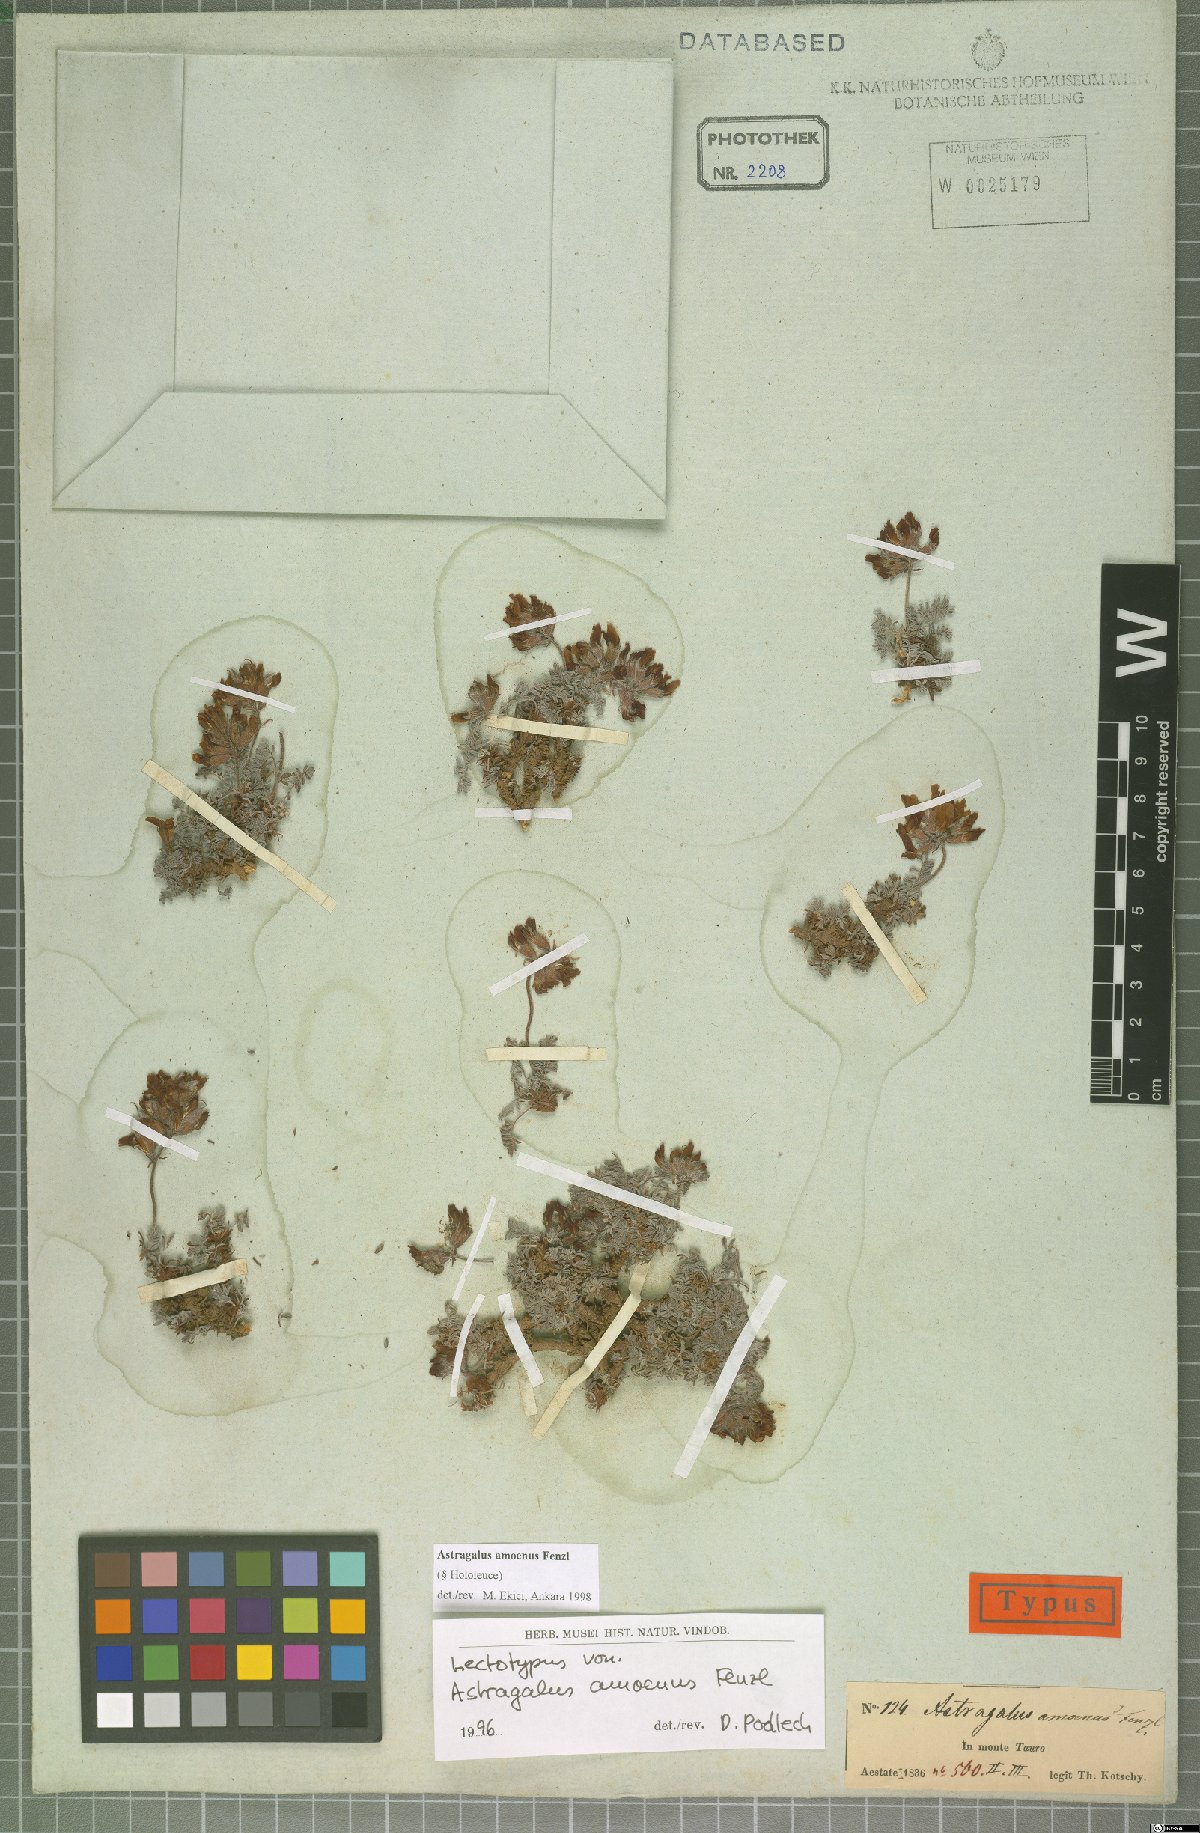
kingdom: Plantae
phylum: Tracheophyta
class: Magnoliopsida
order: Fabales
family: Fabaceae
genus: Astragalus
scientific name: Astragalus amoenus
